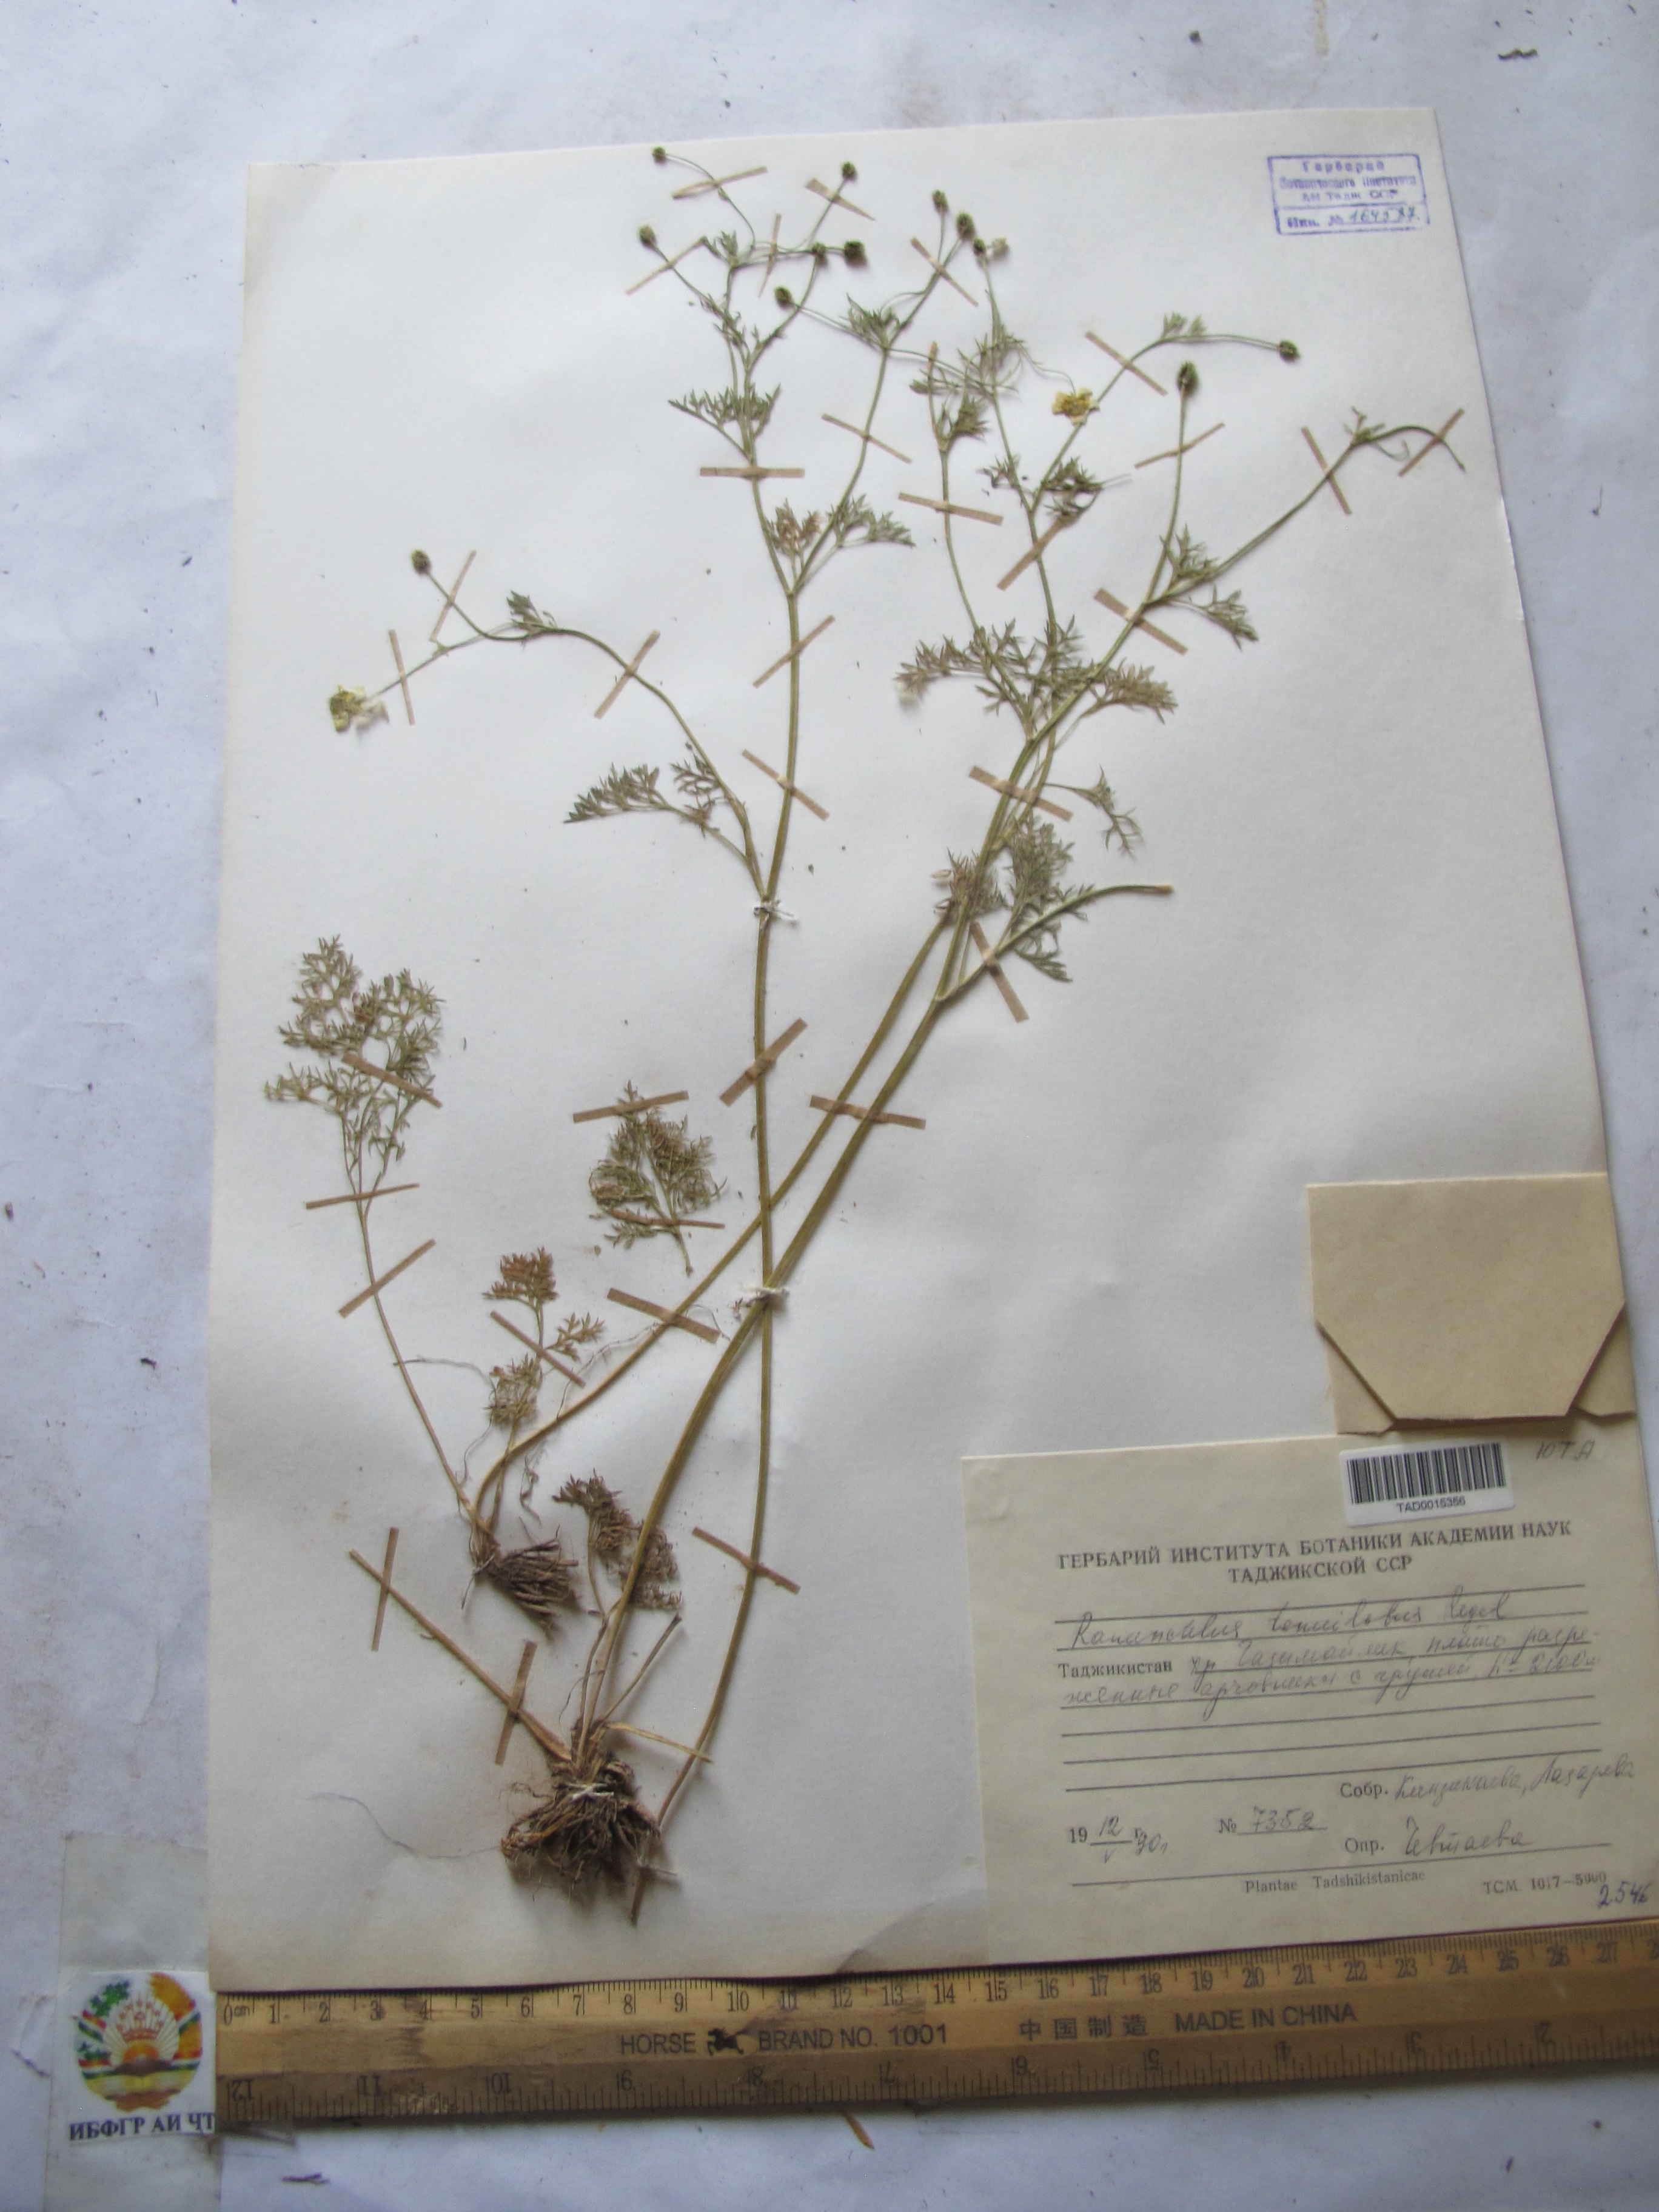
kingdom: Plantae
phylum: Tracheophyta
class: Magnoliopsida
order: Ranunculales
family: Ranunculaceae
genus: Ranunculus
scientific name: Ranunculus tenuilobus
